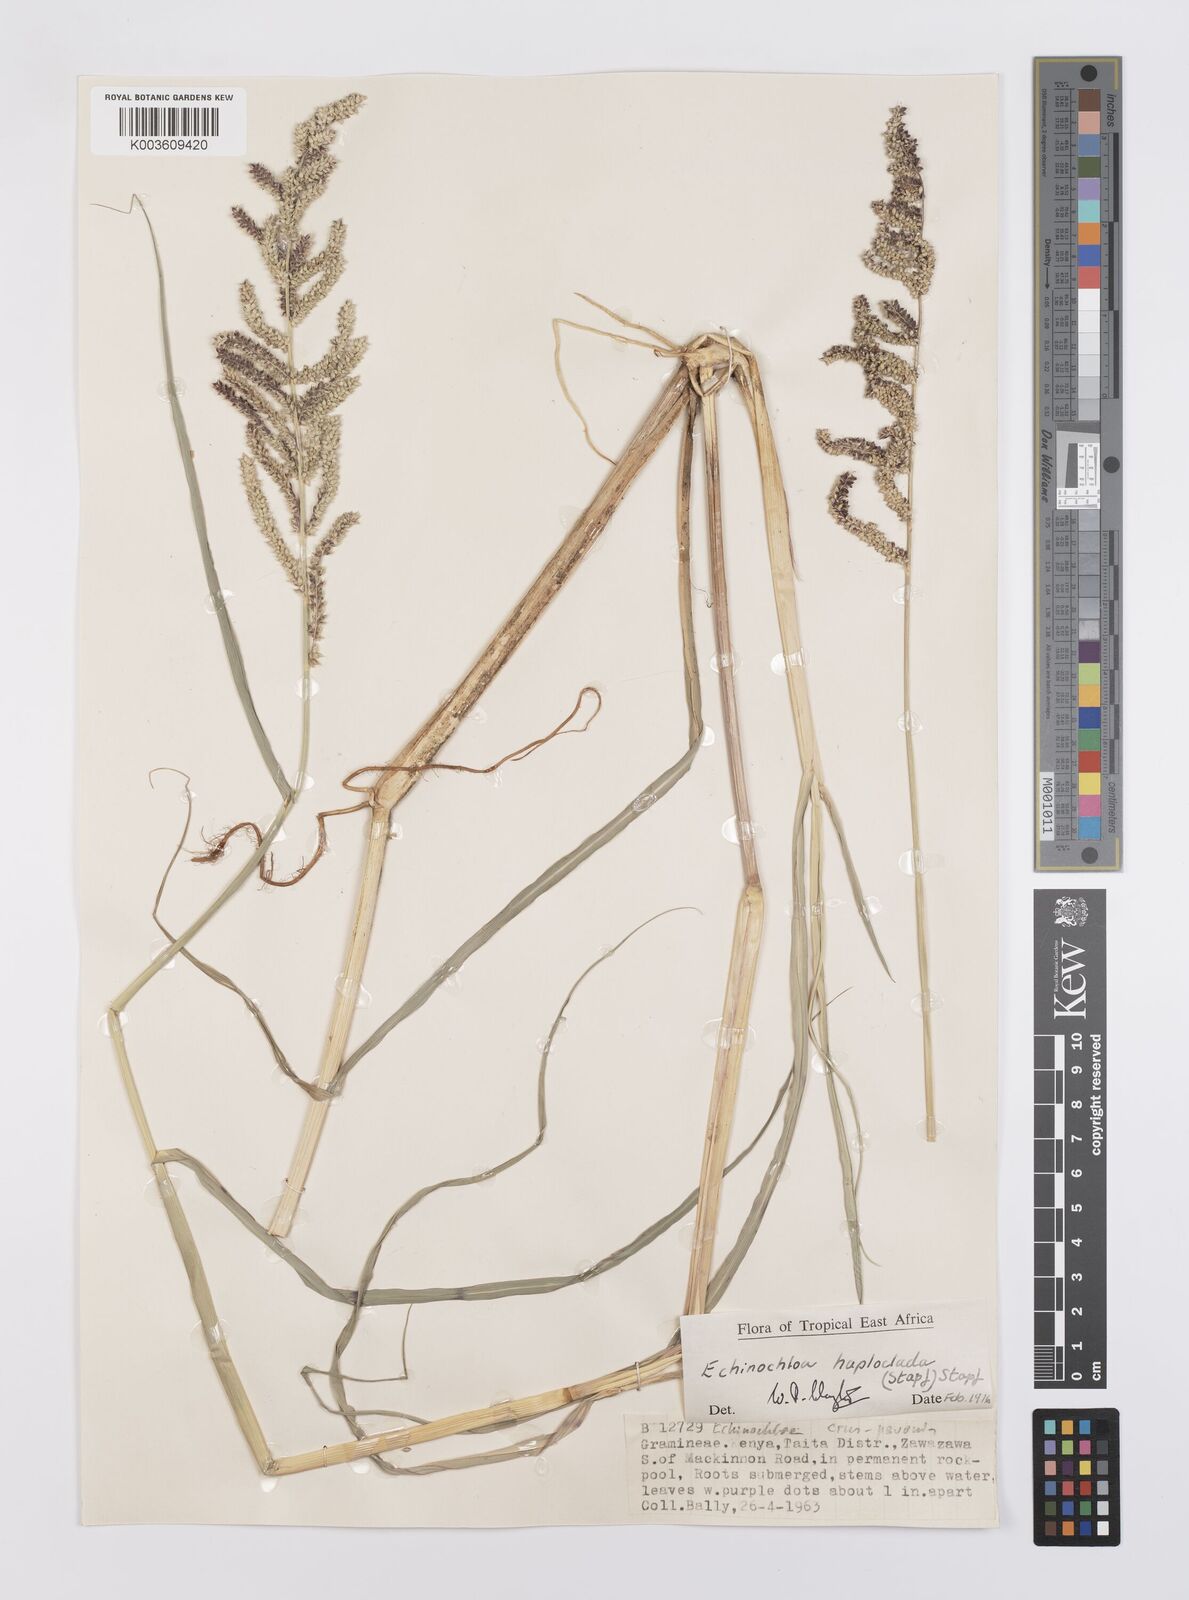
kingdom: Plantae
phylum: Tracheophyta
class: Liliopsida
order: Poales
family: Poaceae
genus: Echinochloa
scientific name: Echinochloa haploclada
